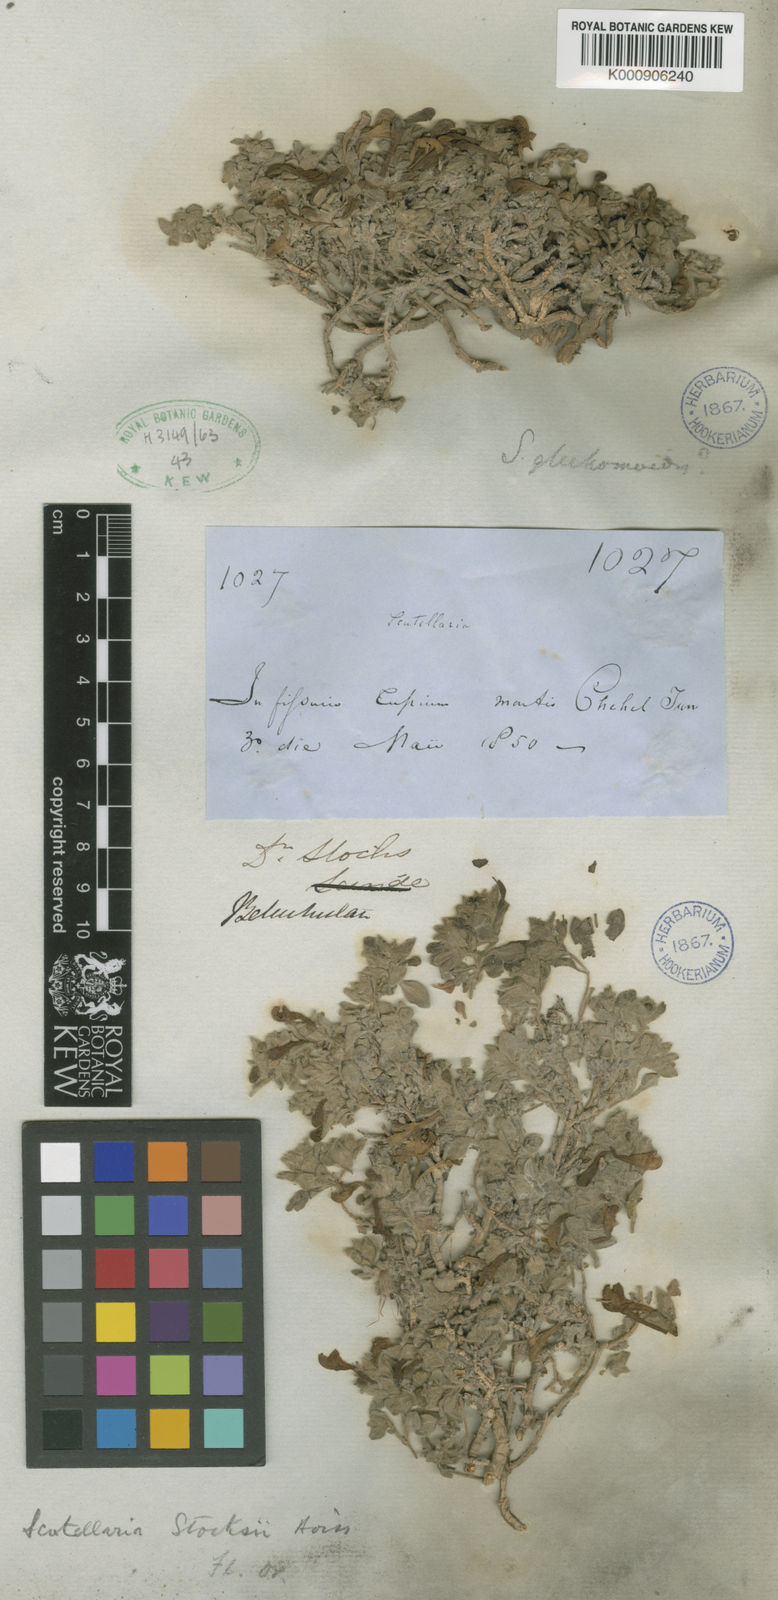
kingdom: Plantae
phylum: Tracheophyta
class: Magnoliopsida
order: Lamiales
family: Lamiaceae
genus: Scutellaria
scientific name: Scutellaria stocksii
